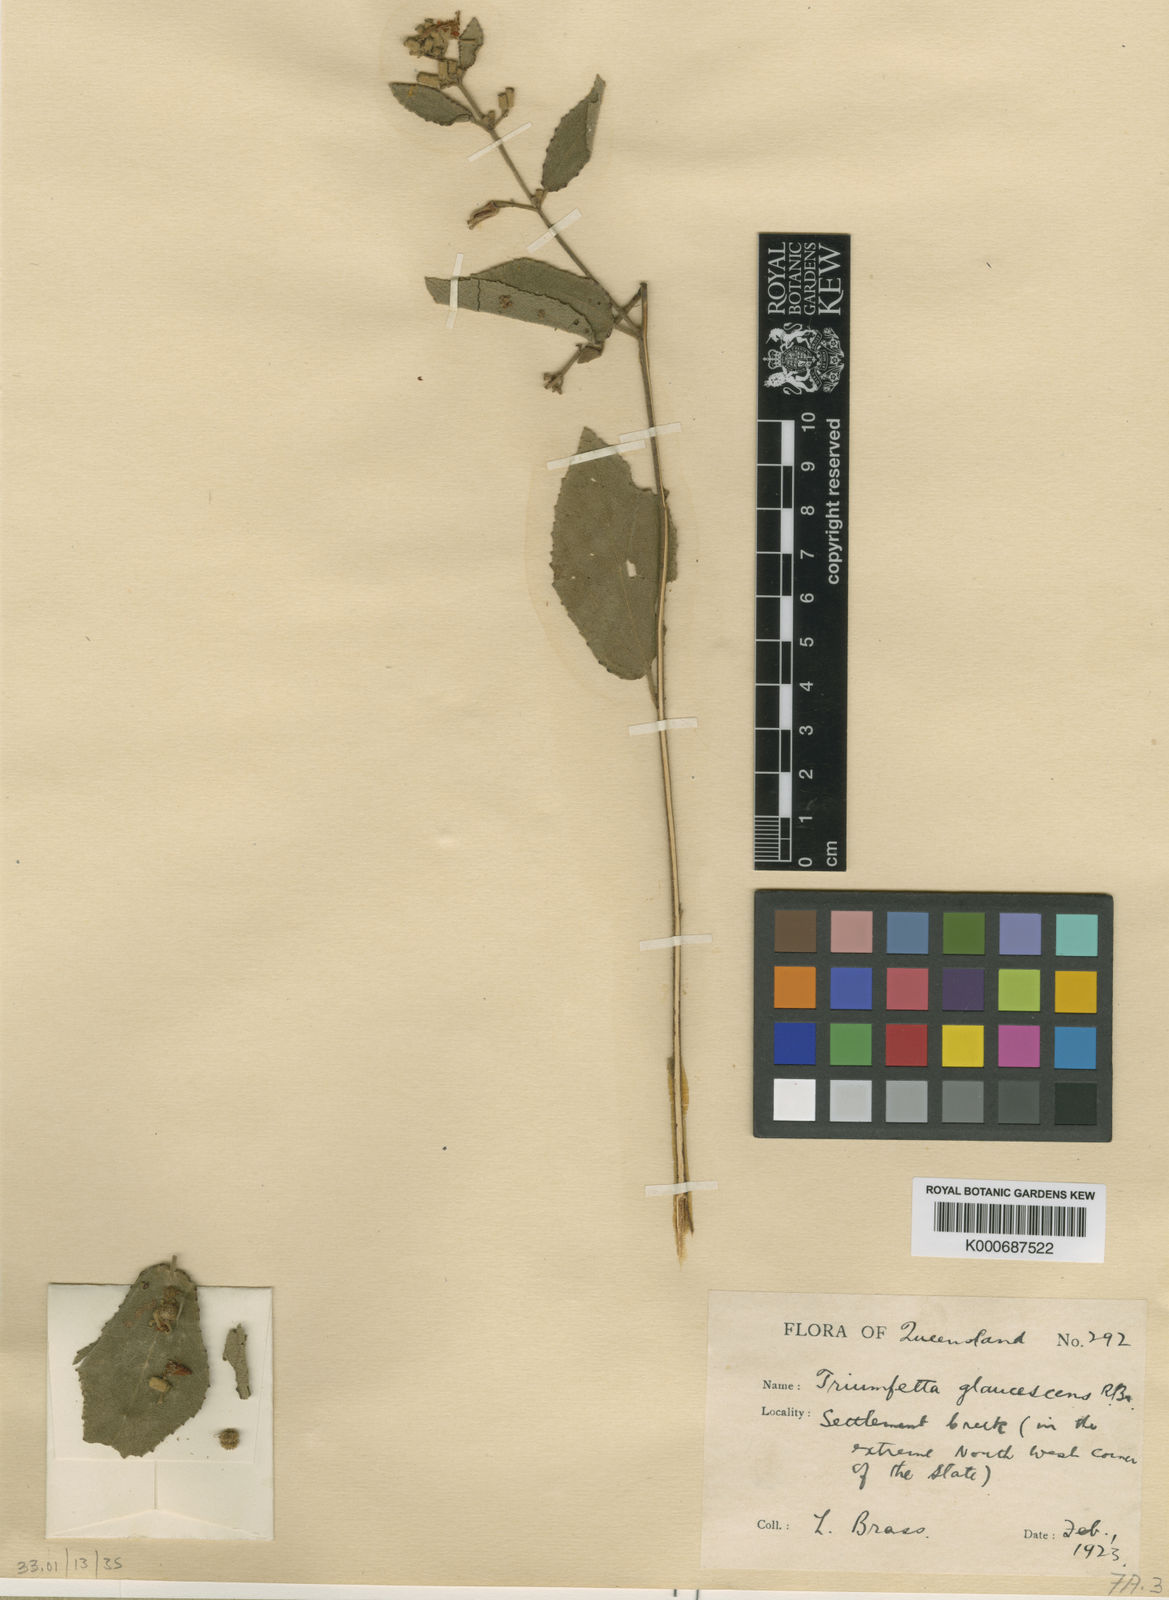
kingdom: Plantae
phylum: Tracheophyta
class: Magnoliopsida
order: Malvales
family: Malvaceae
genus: Triumfetta
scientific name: Triumfetta glaucescens
